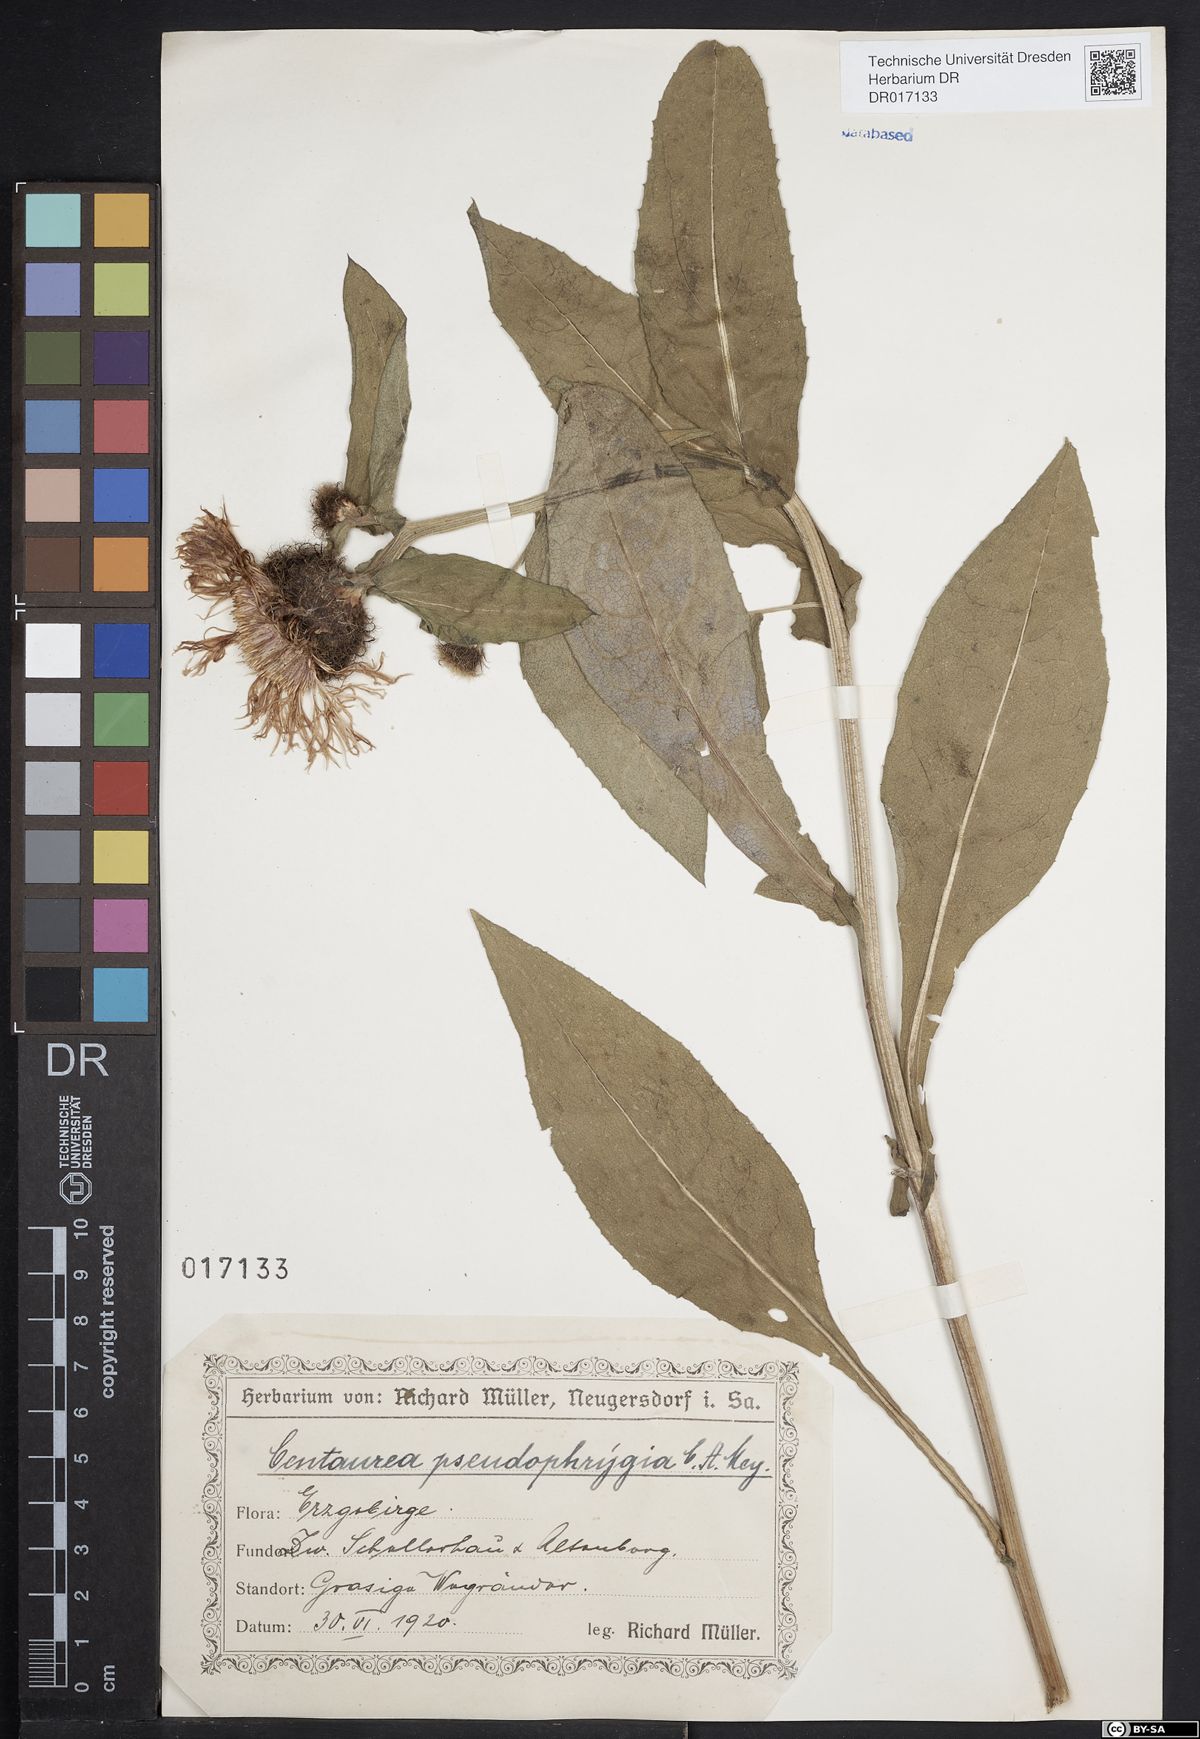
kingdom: Plantae
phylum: Tracheophyta
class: Magnoliopsida
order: Asterales
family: Asteraceae
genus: Centaurea
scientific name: Centaurea pseudophrygia
